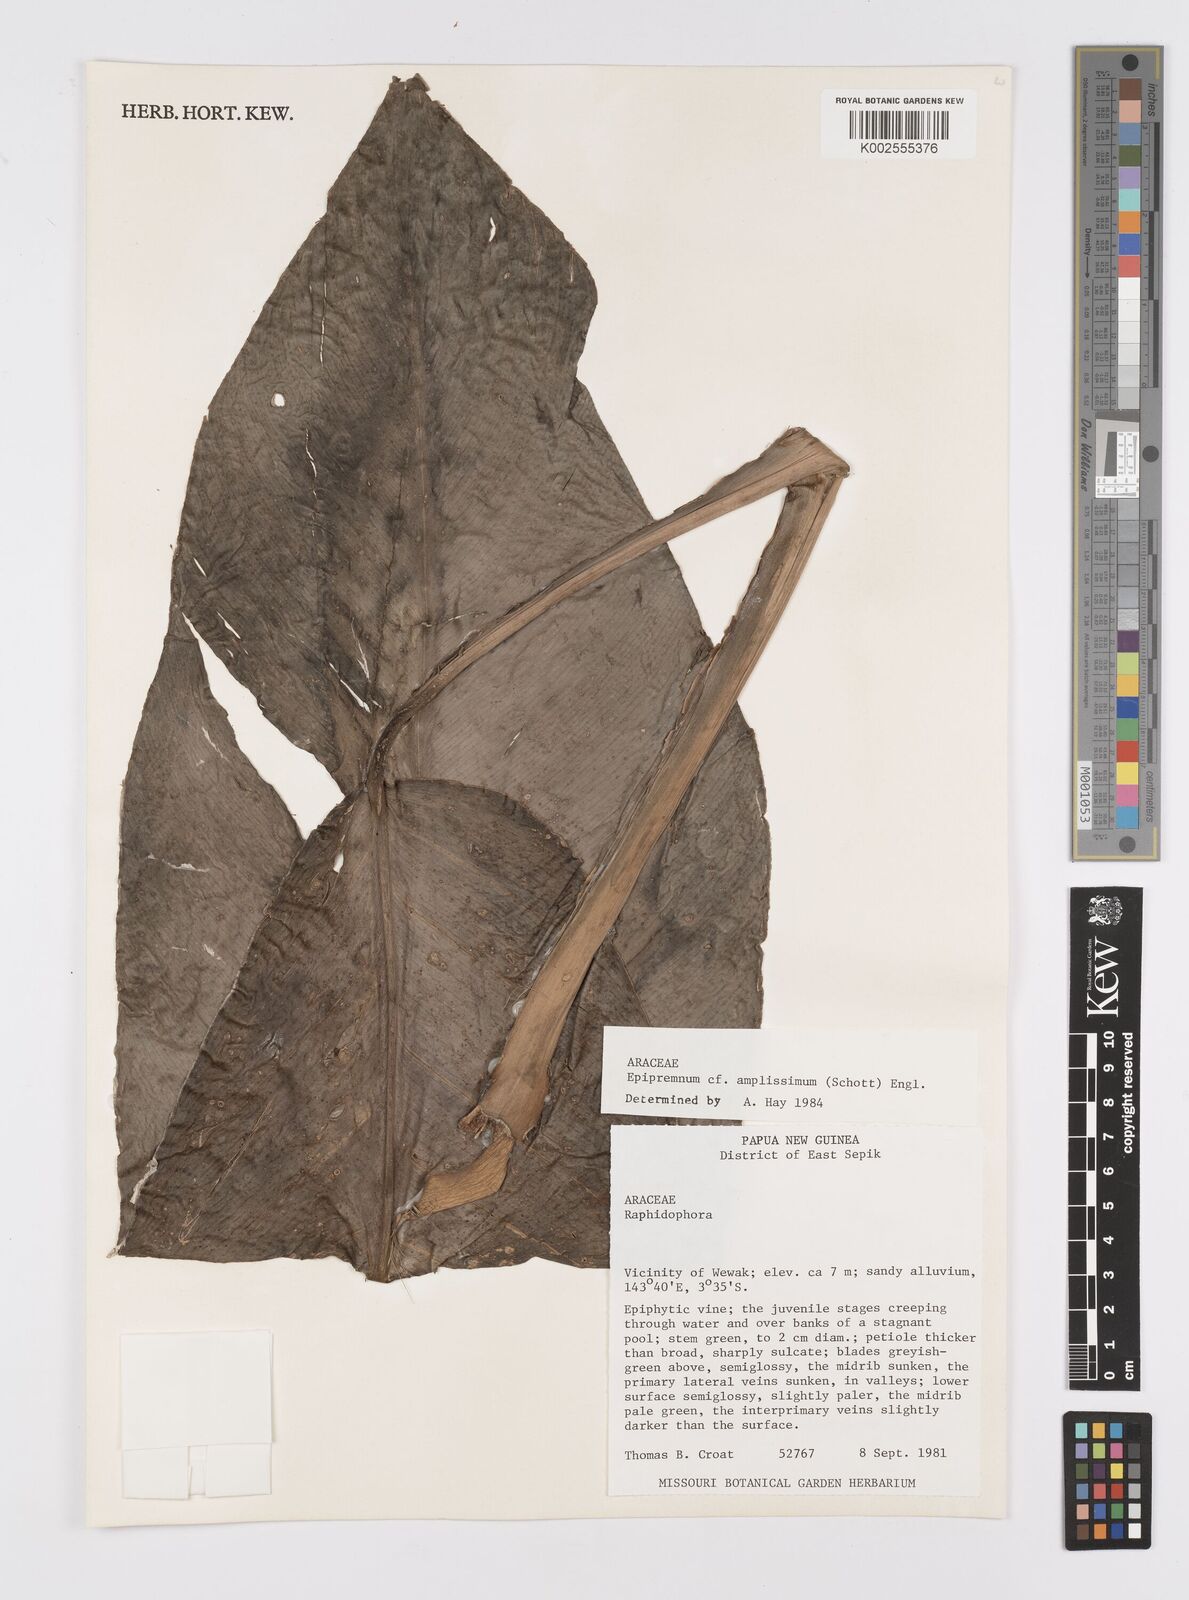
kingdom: Plantae
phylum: Tracheophyta
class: Liliopsida
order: Alismatales
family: Araceae
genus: Epipremnum
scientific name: Epipremnum amplissimum
